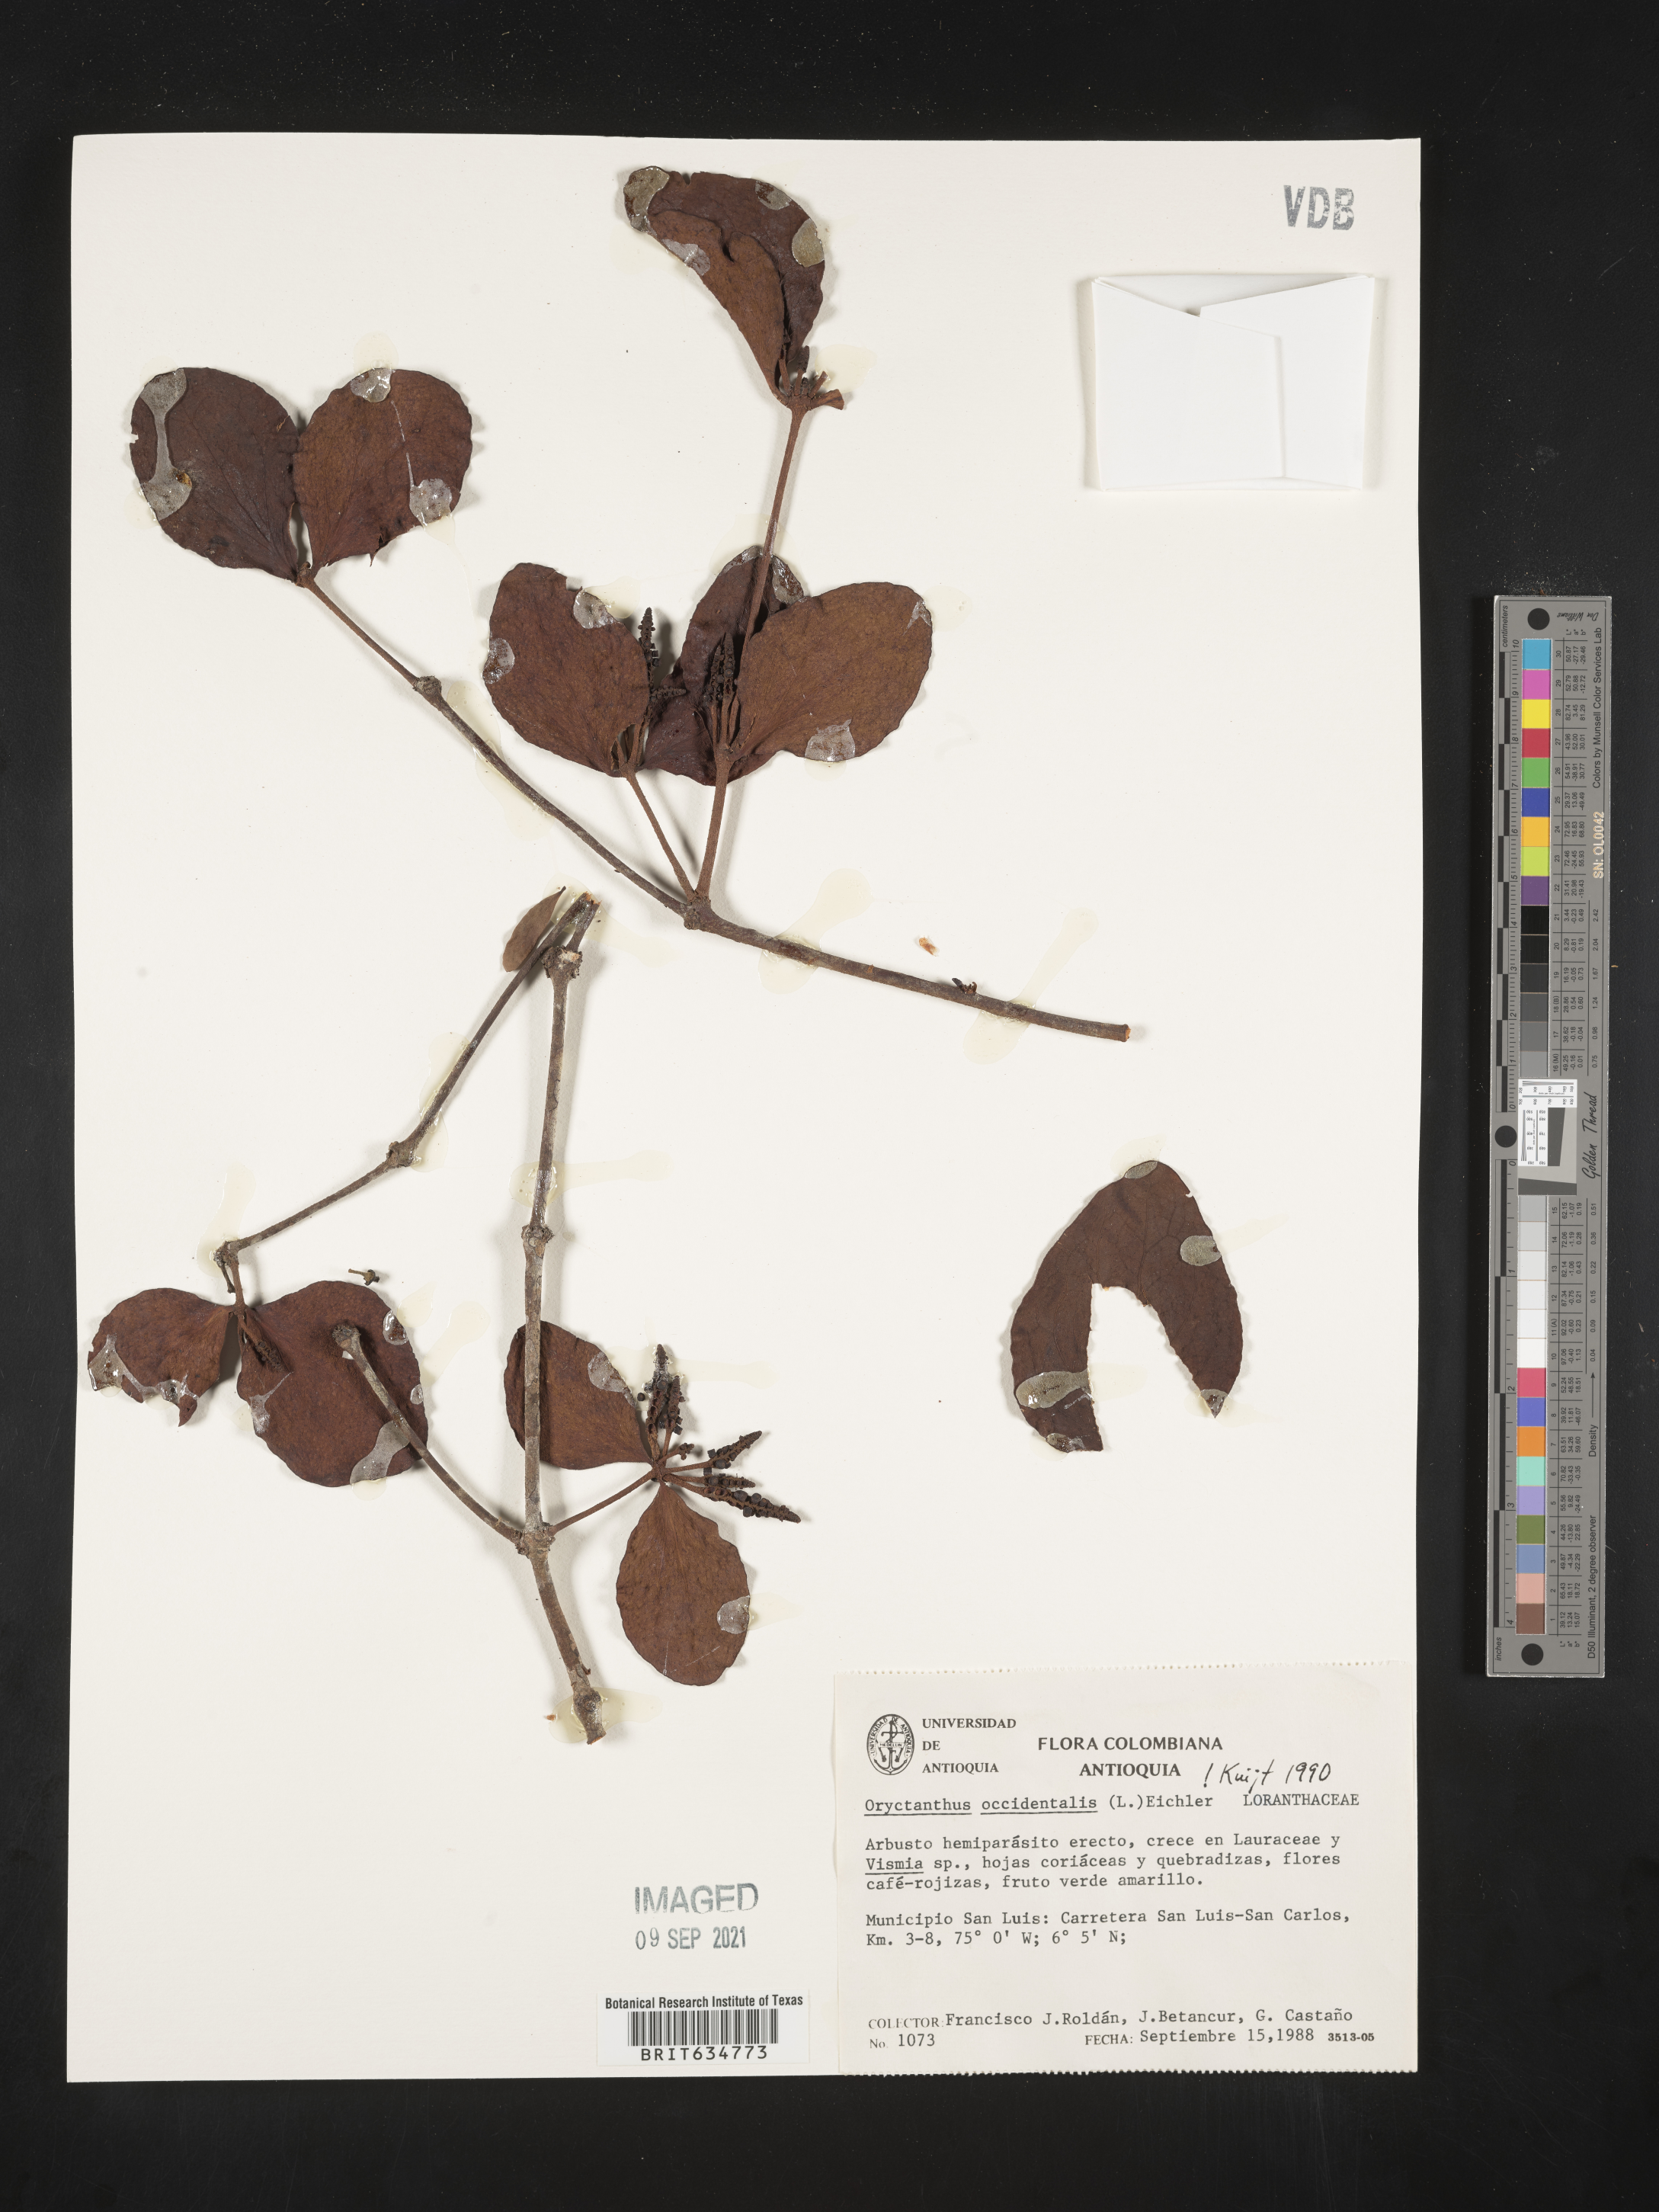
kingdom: Plantae
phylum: Tracheophyta
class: Magnoliopsida
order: Santalales
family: Loranthaceae
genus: Oryctanthus
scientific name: Oryctanthus
